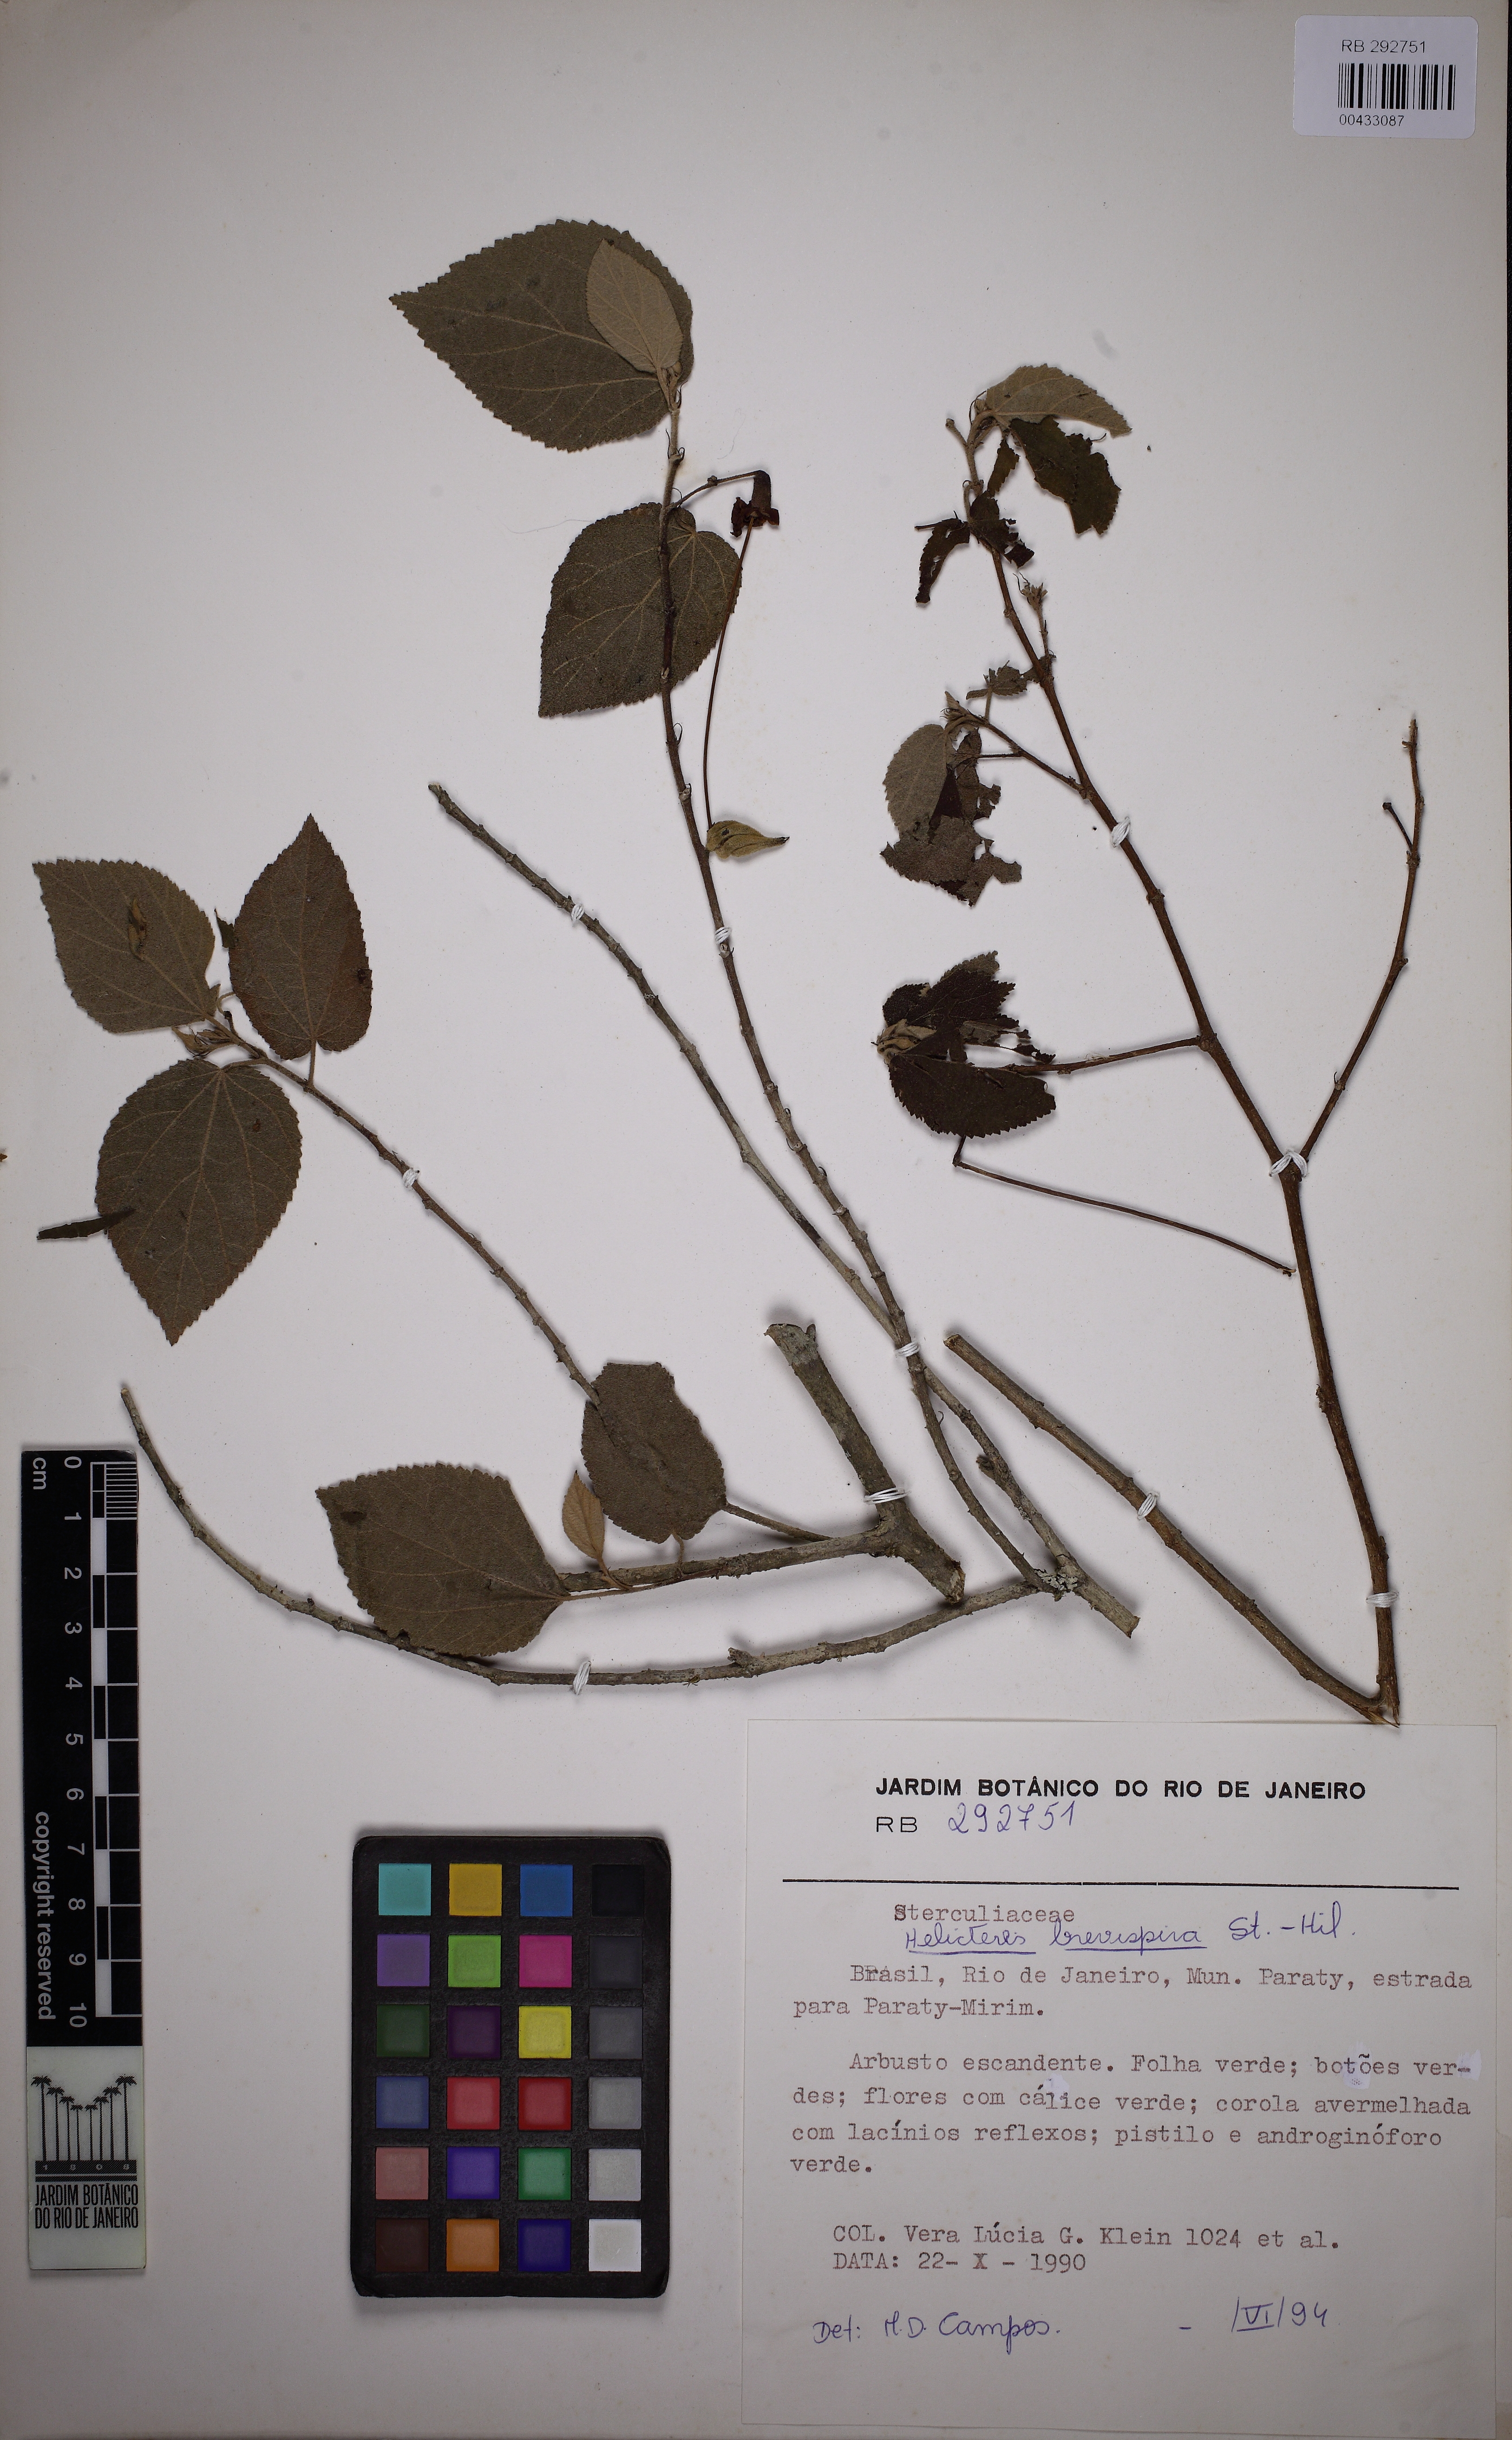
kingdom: Plantae
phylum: Tracheophyta
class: Magnoliopsida
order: Malvales
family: Malvaceae
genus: Helicteres
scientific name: Helicteres brevispira
